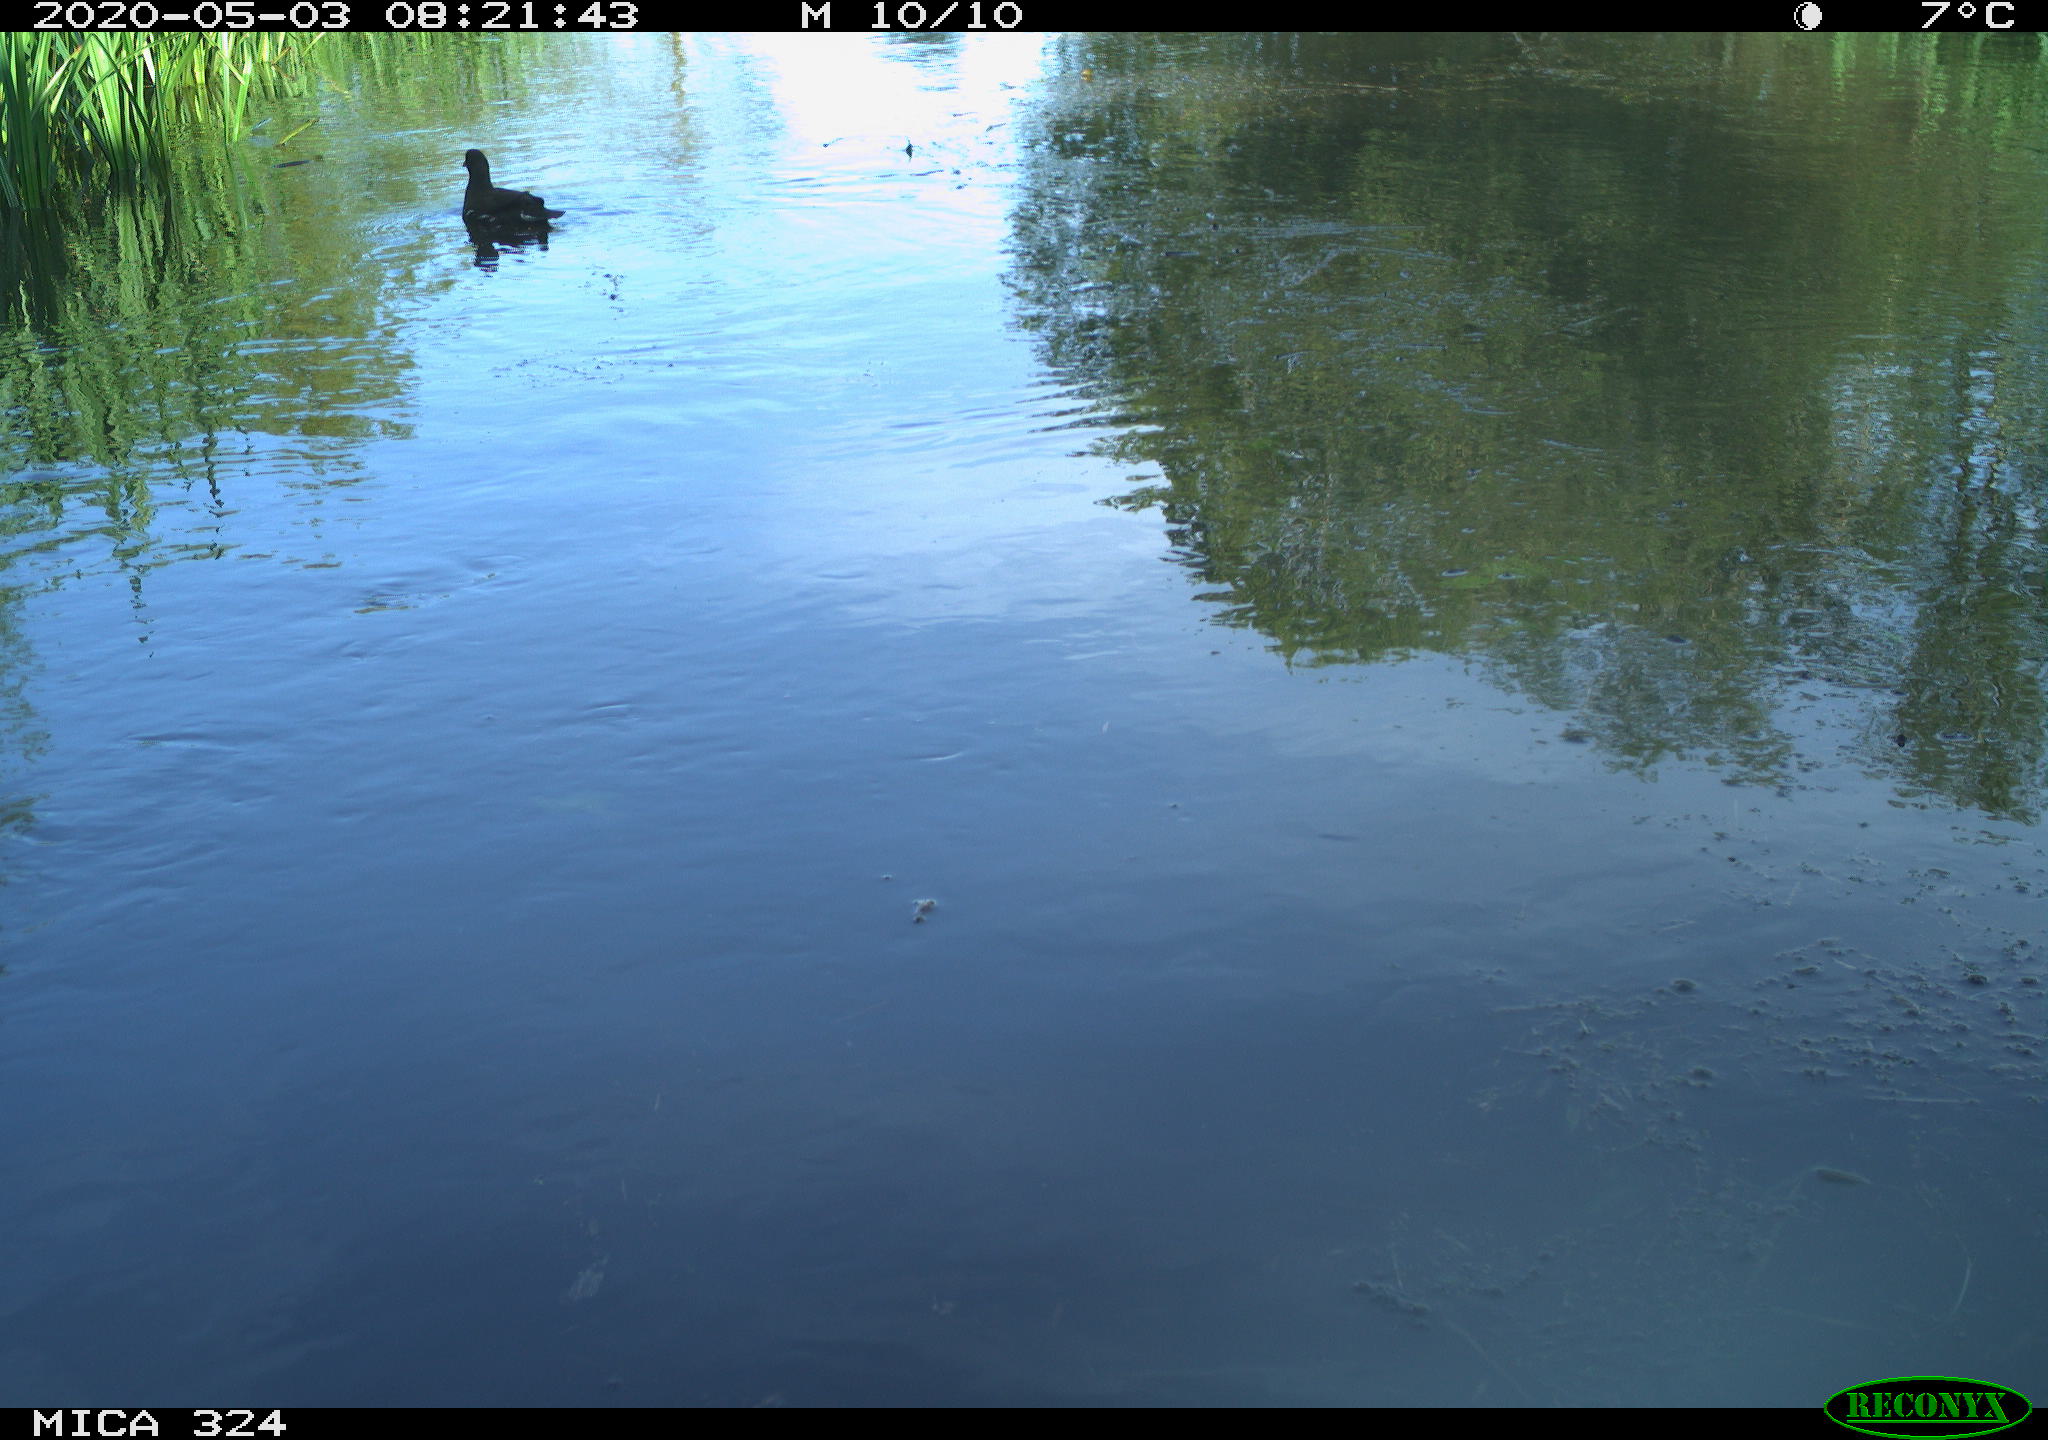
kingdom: Animalia
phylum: Chordata
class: Aves
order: Gruiformes
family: Rallidae
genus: Gallinula
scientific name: Gallinula chloropus
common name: Common moorhen
